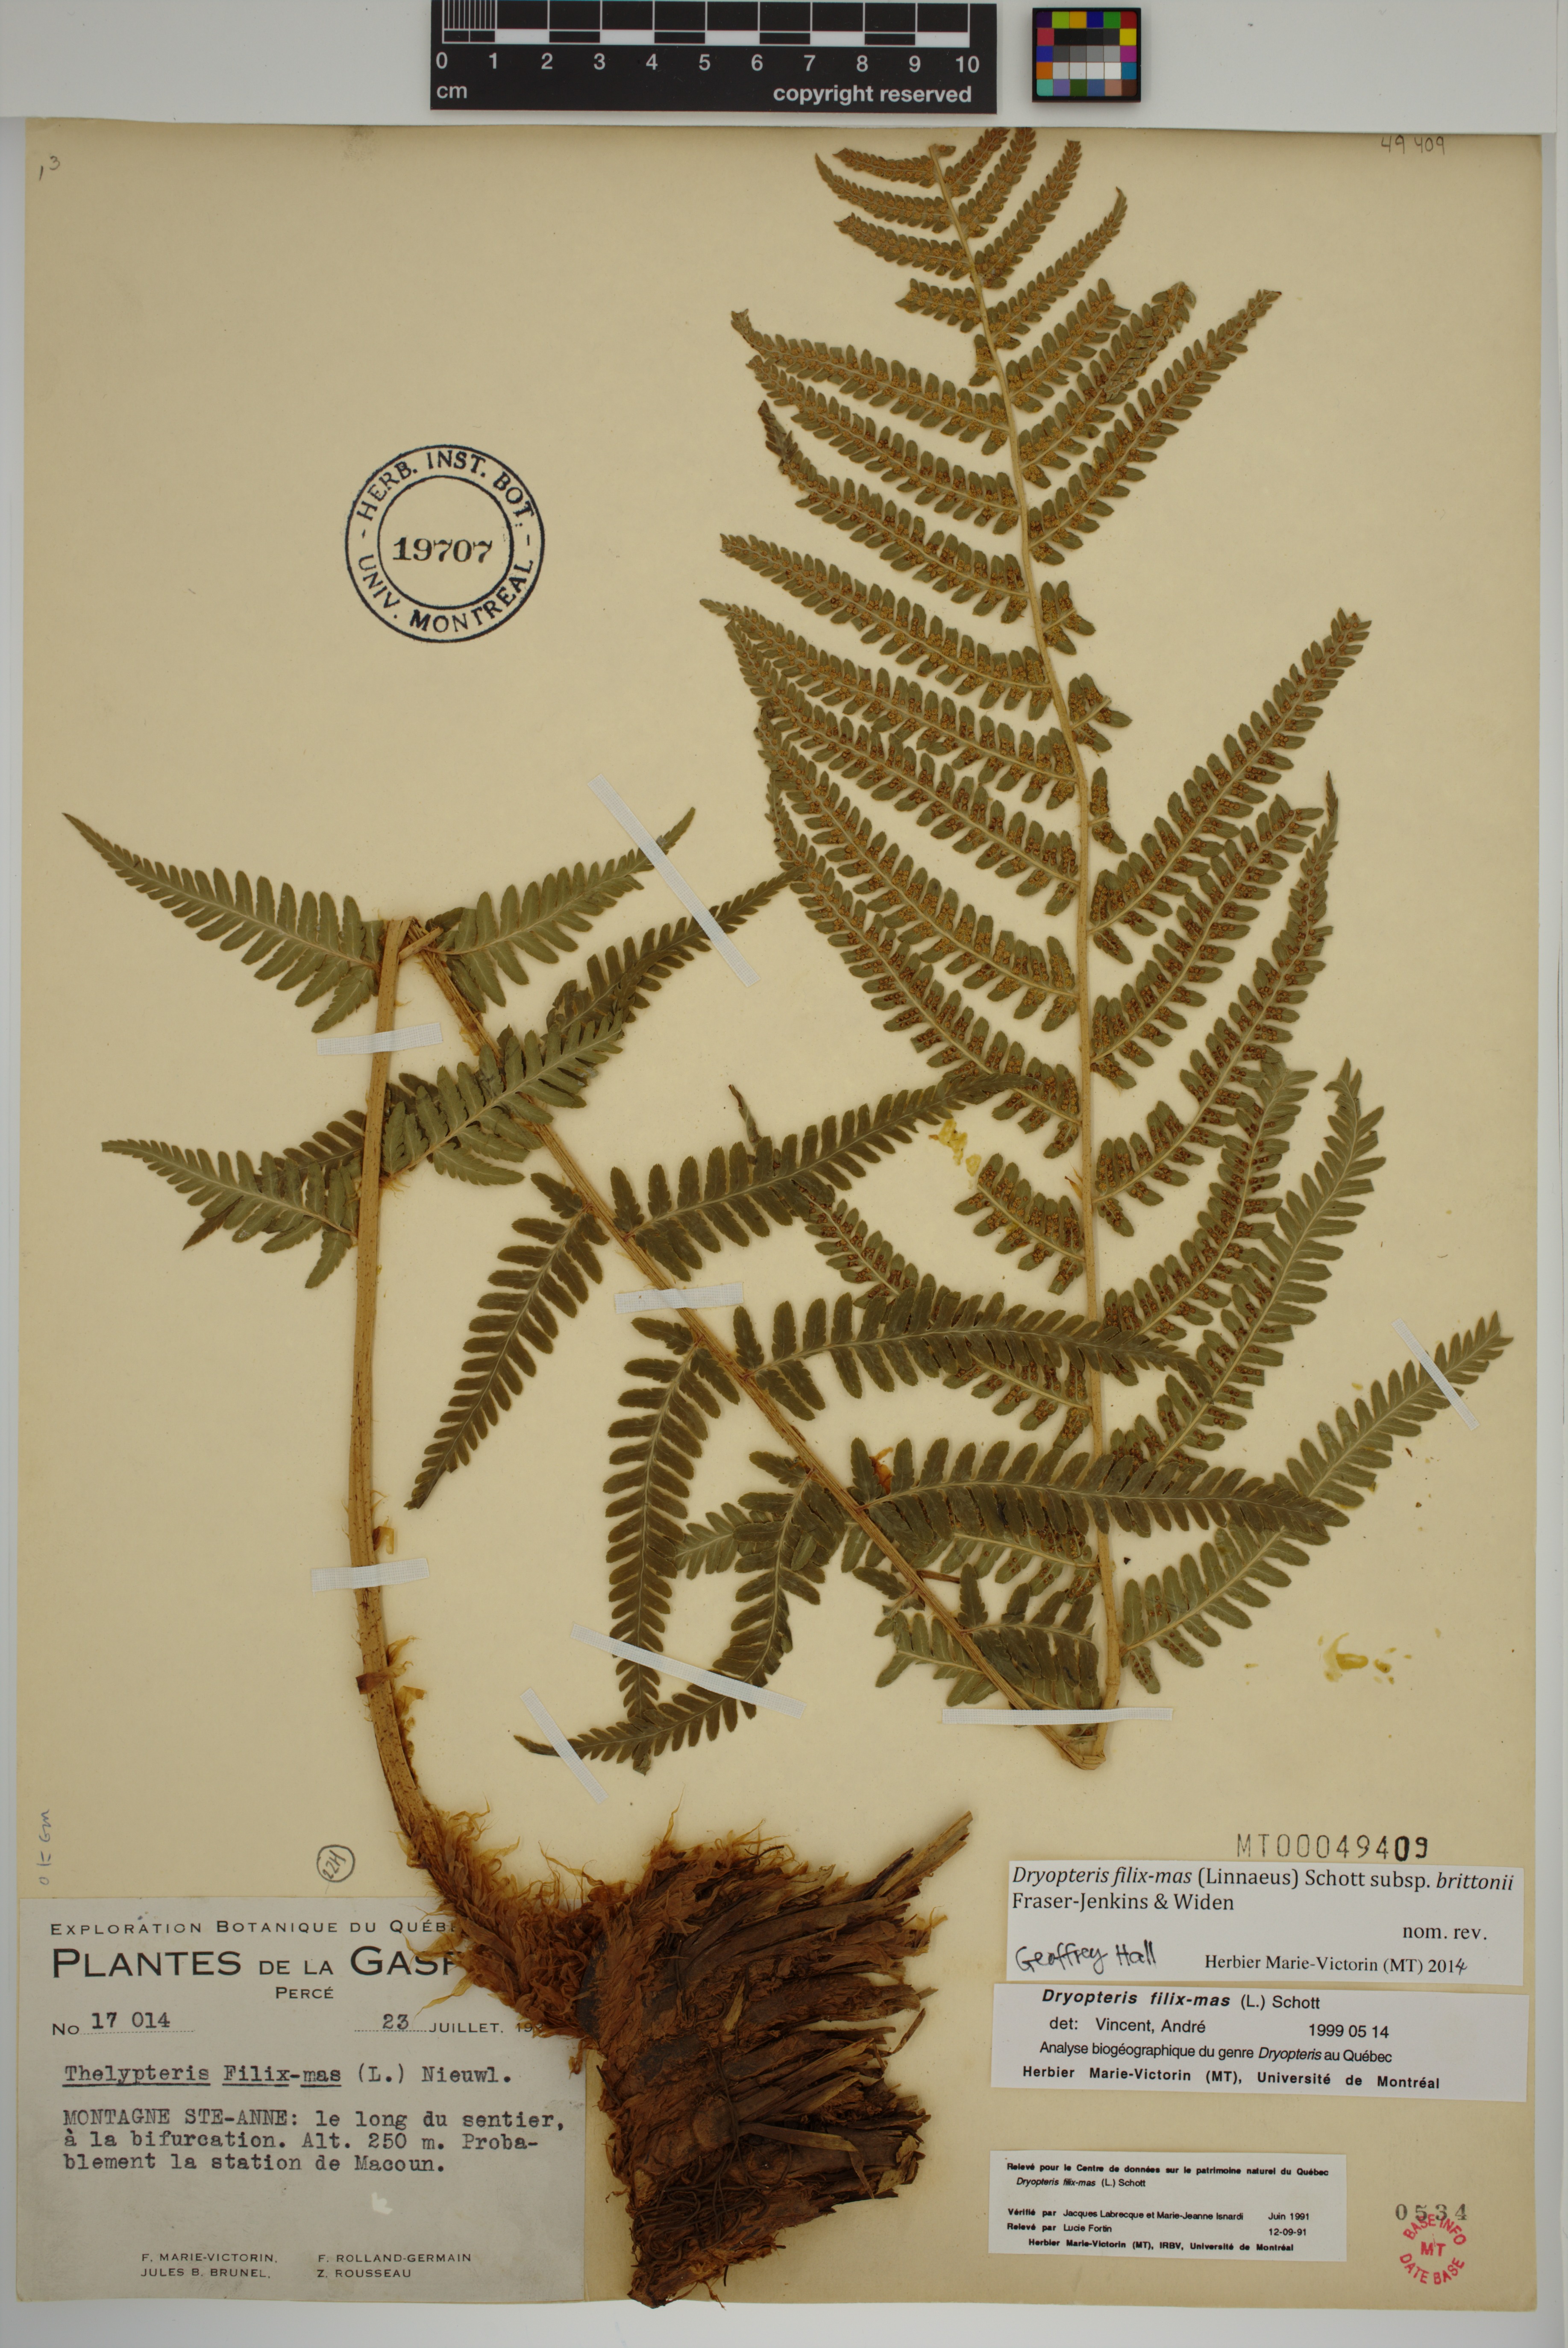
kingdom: Plantae
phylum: Tracheophyta
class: Polypodiopsida
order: Polypodiales
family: Dryopteridaceae
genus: Dryopteris
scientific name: Dryopteris filix-mas
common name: Male fern
